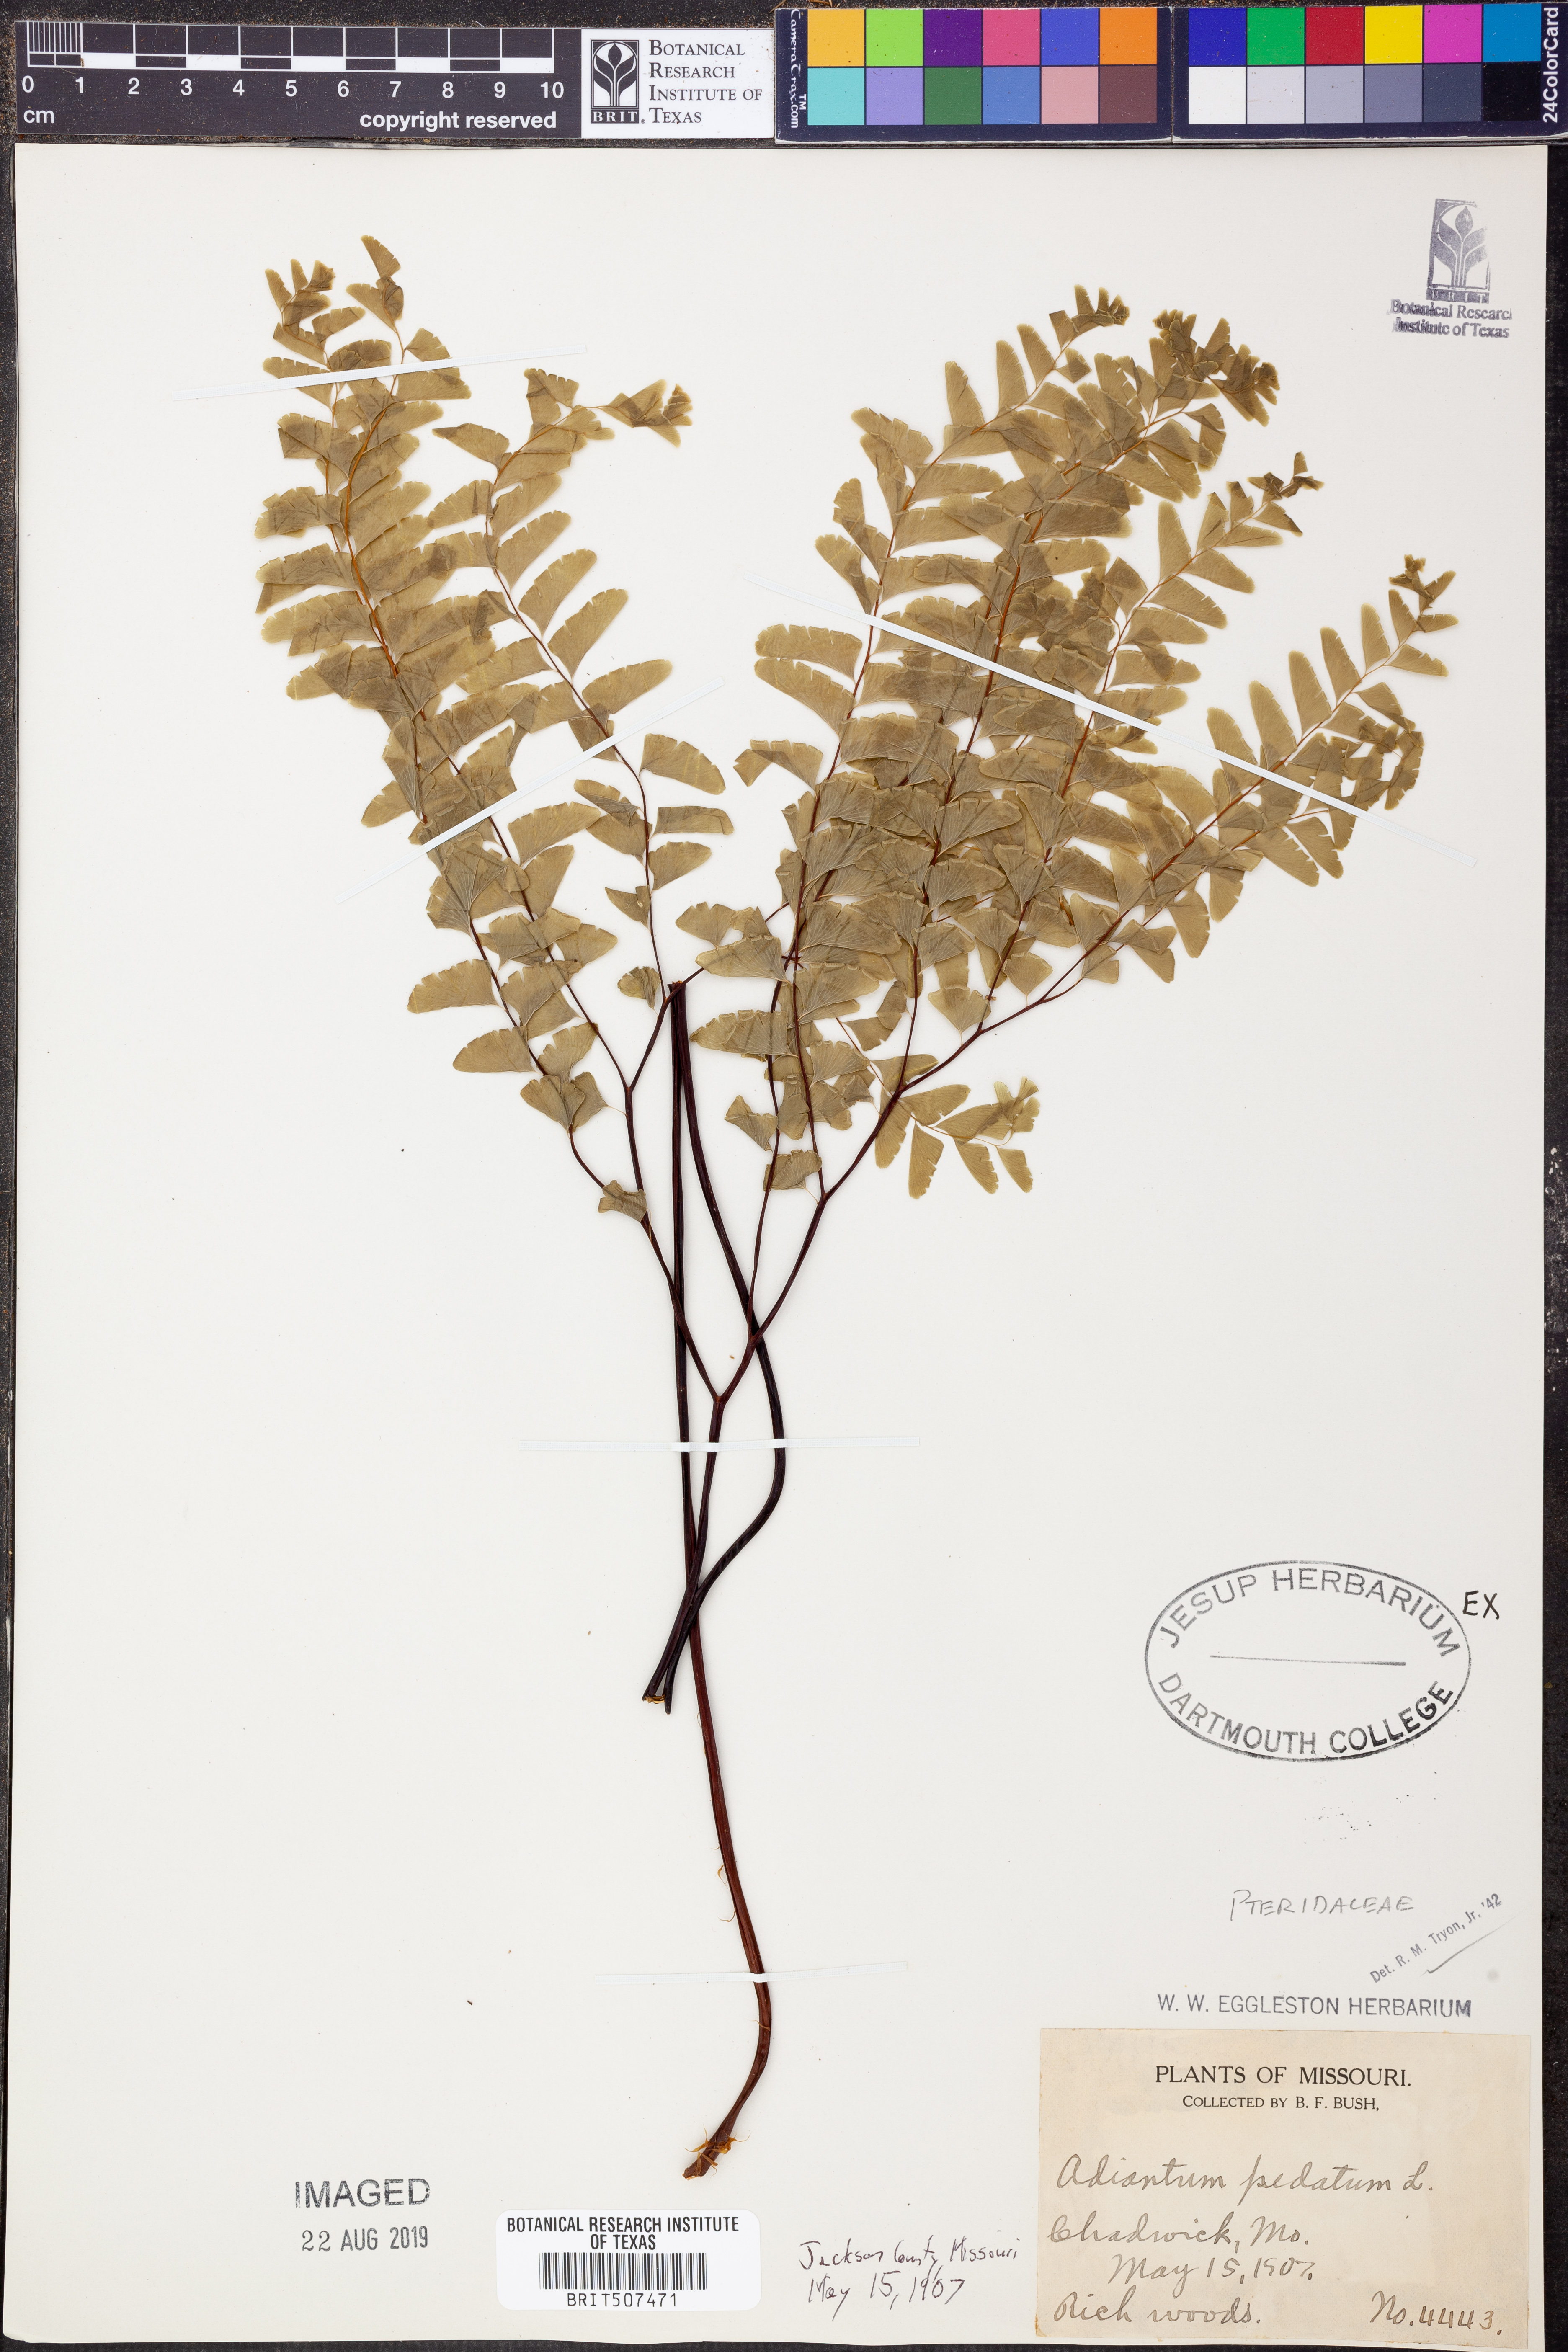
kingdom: Plantae
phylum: Tracheophyta
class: Polypodiopsida
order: Polypodiales
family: Pteridaceae
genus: Adiantum
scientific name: Adiantum pedatum
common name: Five-finger fern
